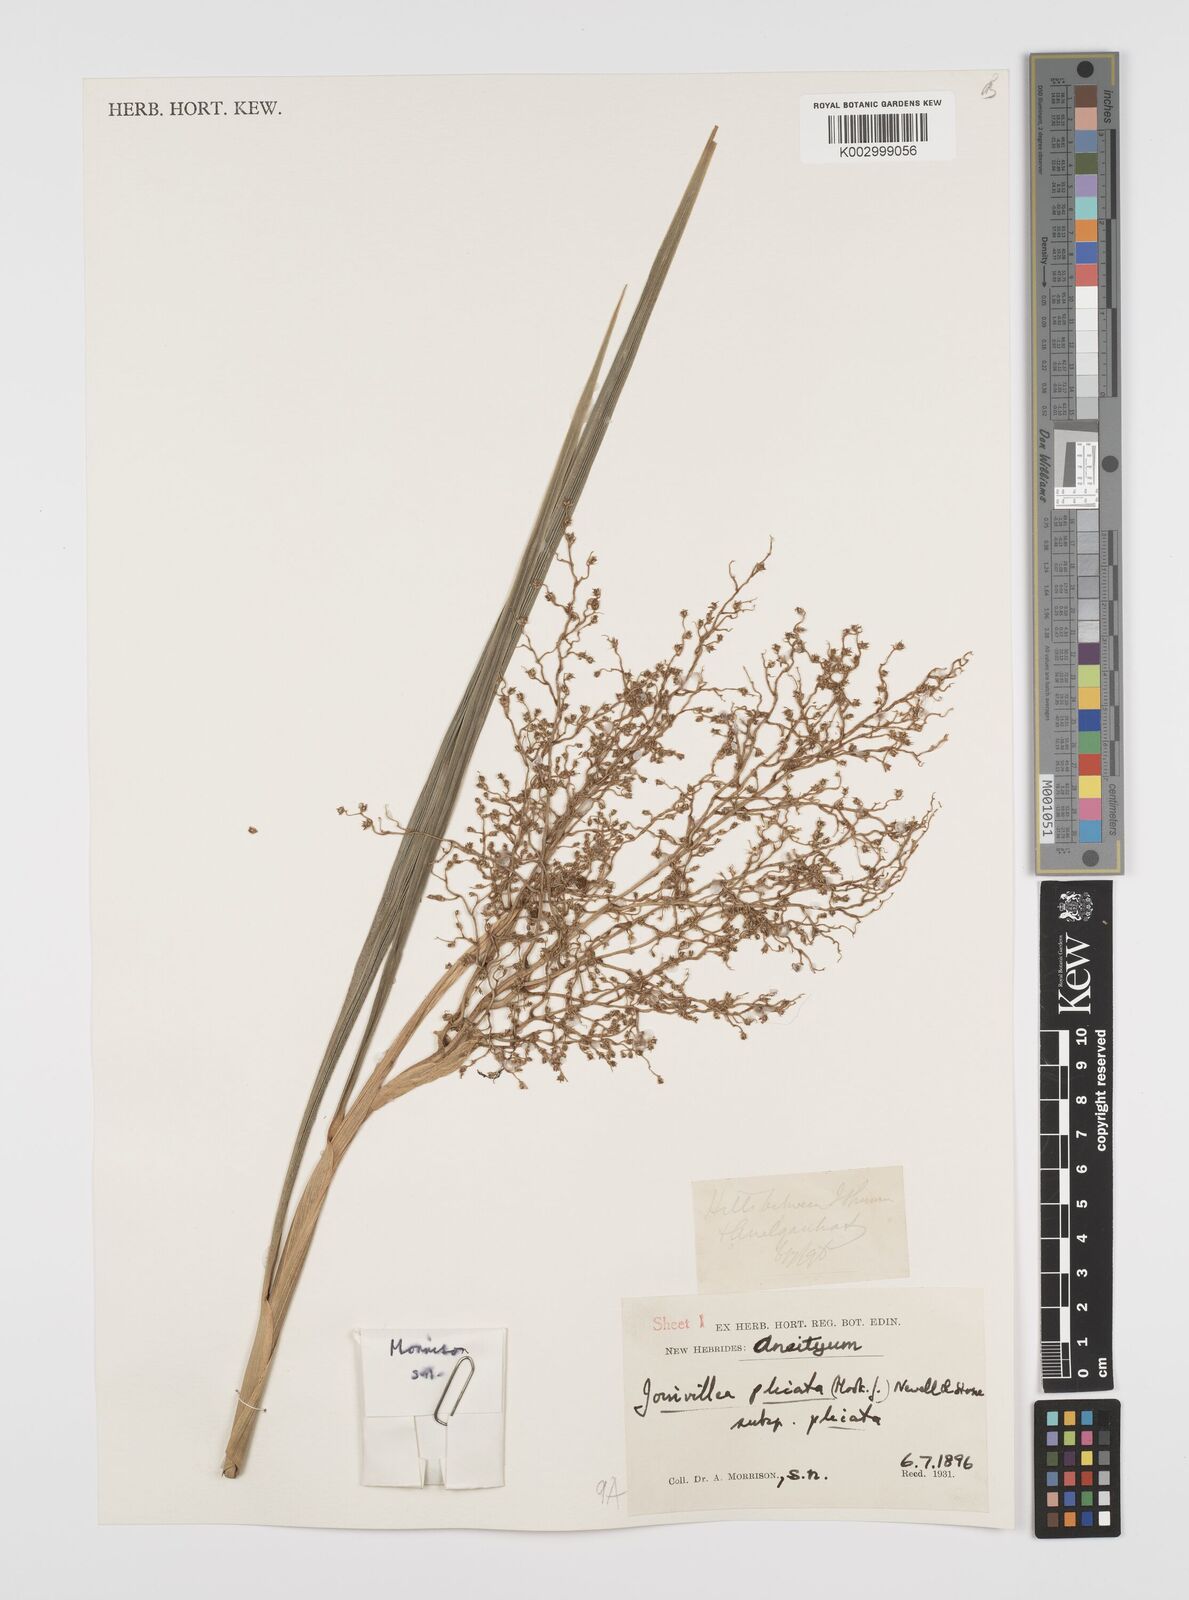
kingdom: Plantae
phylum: Tracheophyta
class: Liliopsida
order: Poales
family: Joinvilleaceae
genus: Joinvillea
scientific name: Joinvillea plicata
